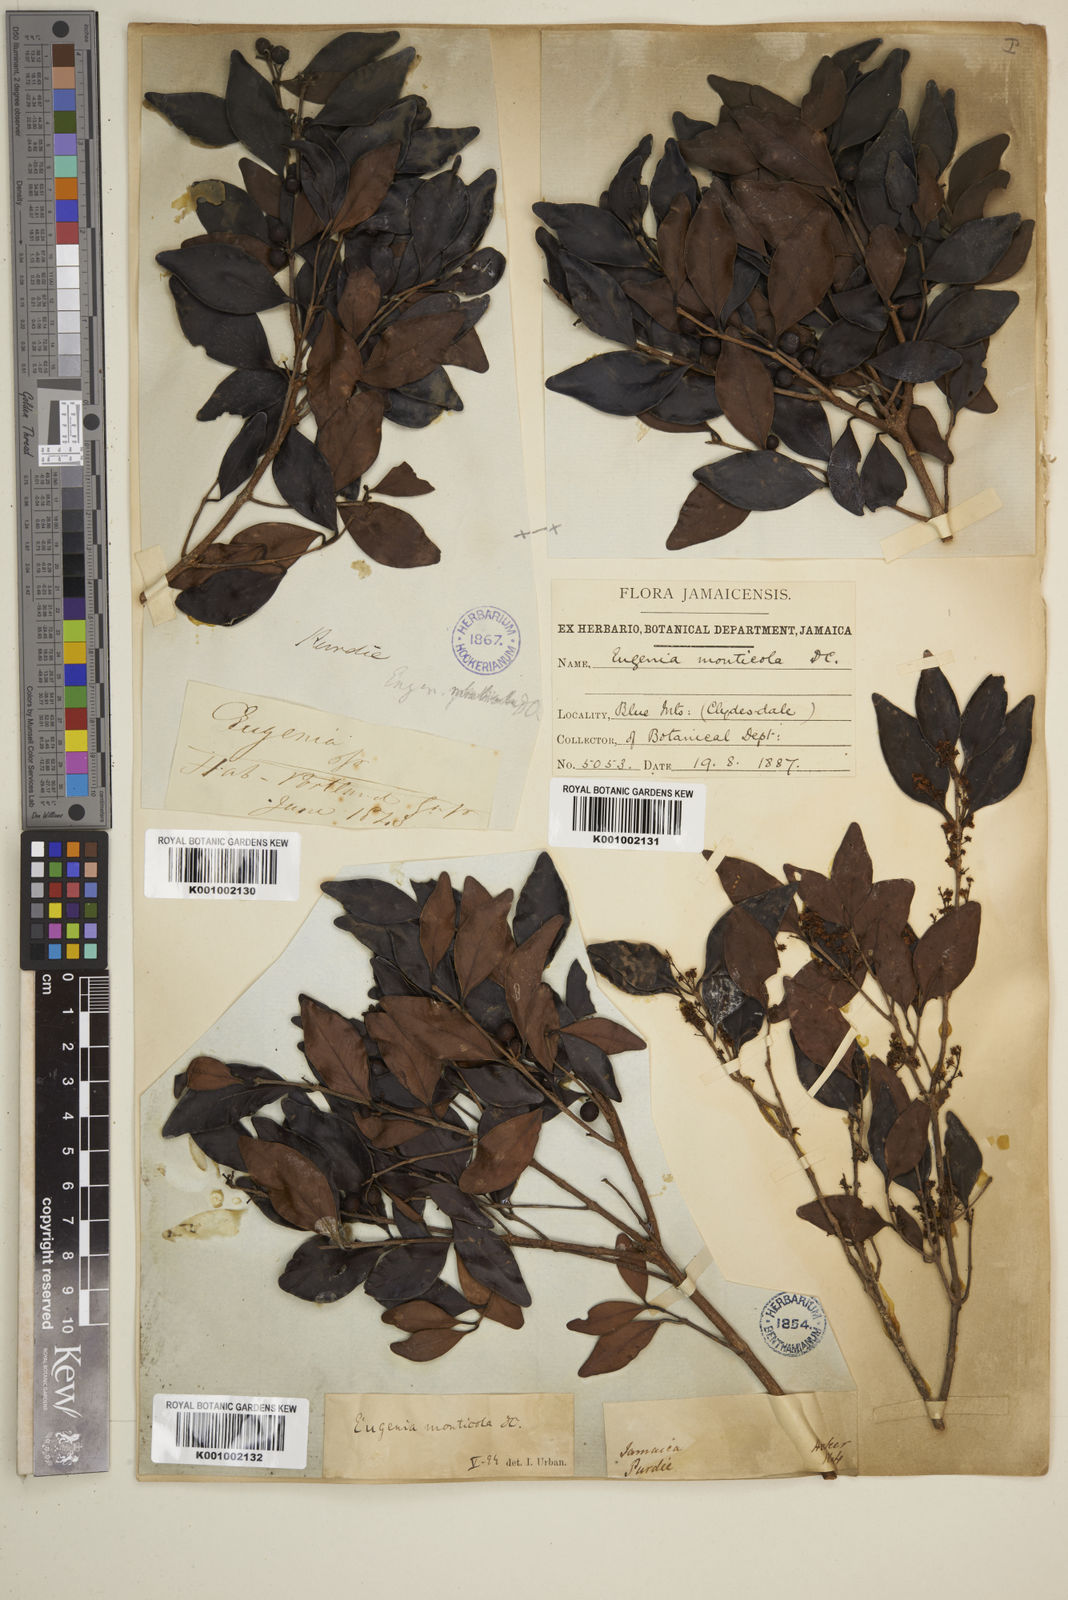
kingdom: Plantae
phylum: Tracheophyta
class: Magnoliopsida
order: Myrtales
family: Myrtaceae
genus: Eugenia
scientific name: Eugenia monticola
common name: Birds berry
